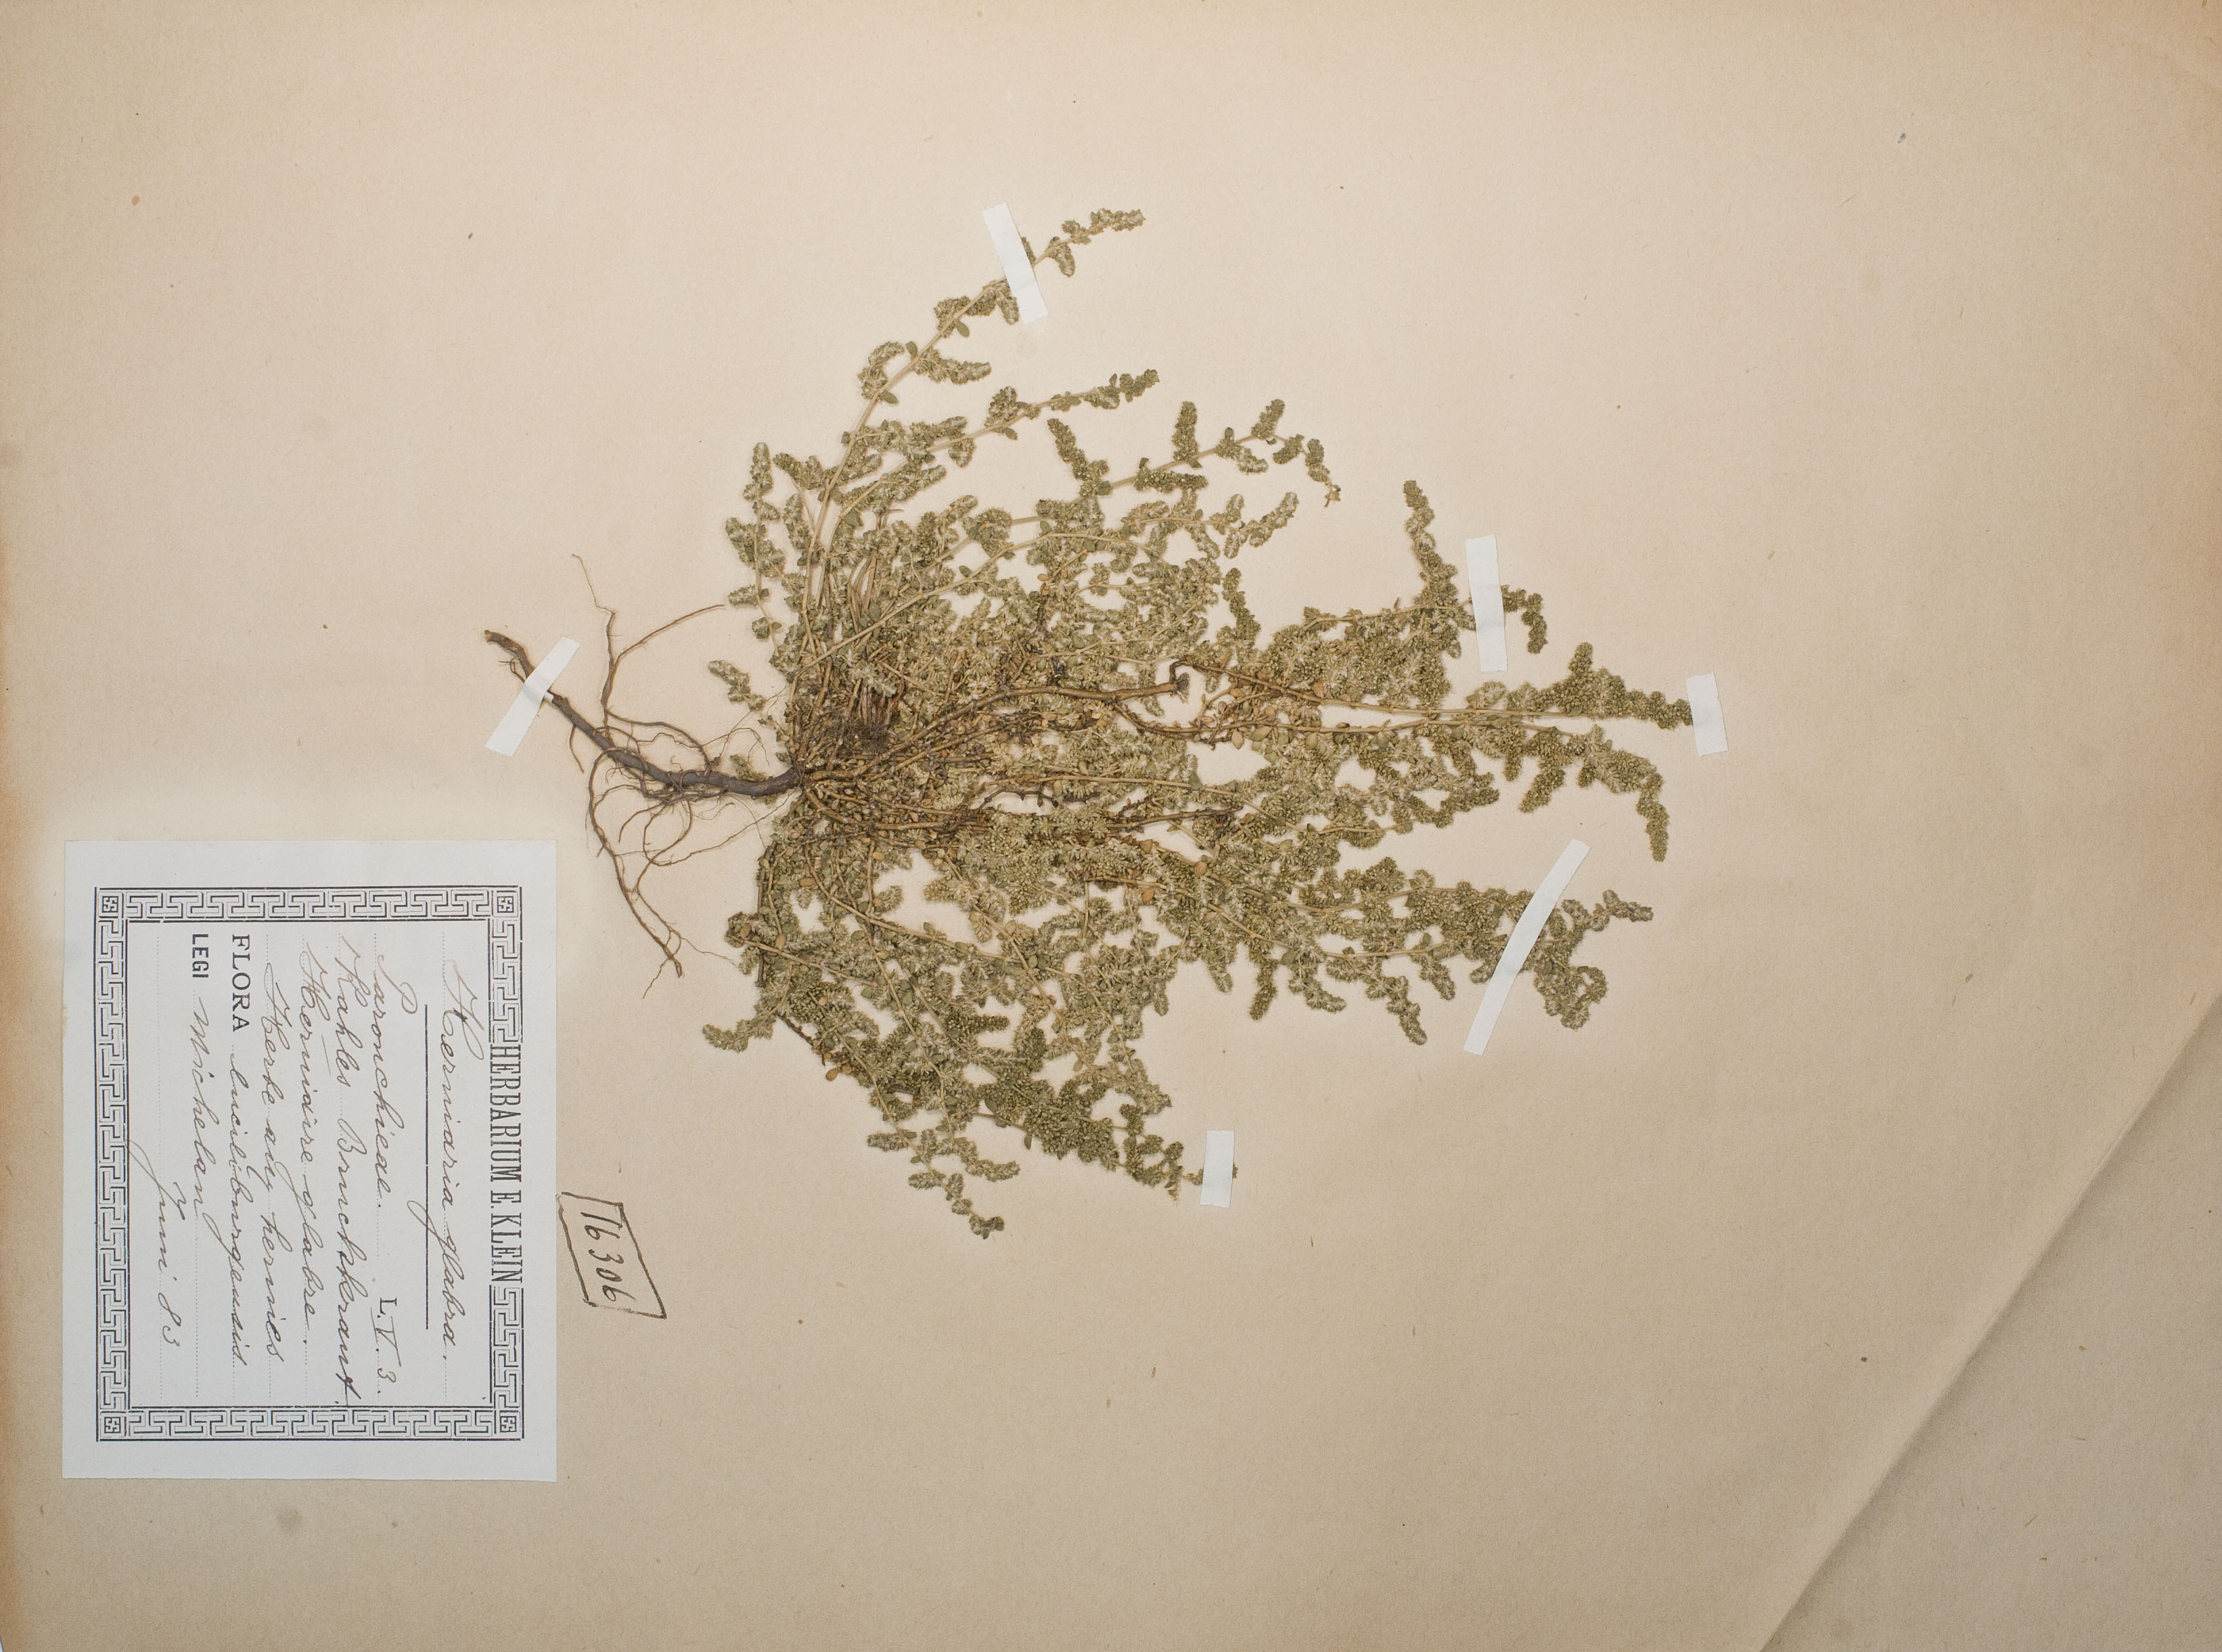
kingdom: Plantae
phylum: Tracheophyta
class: Magnoliopsida
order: Caryophyllales
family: Caryophyllaceae
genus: Herniaria
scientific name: Herniaria glabra
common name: Smooth rupturewort
